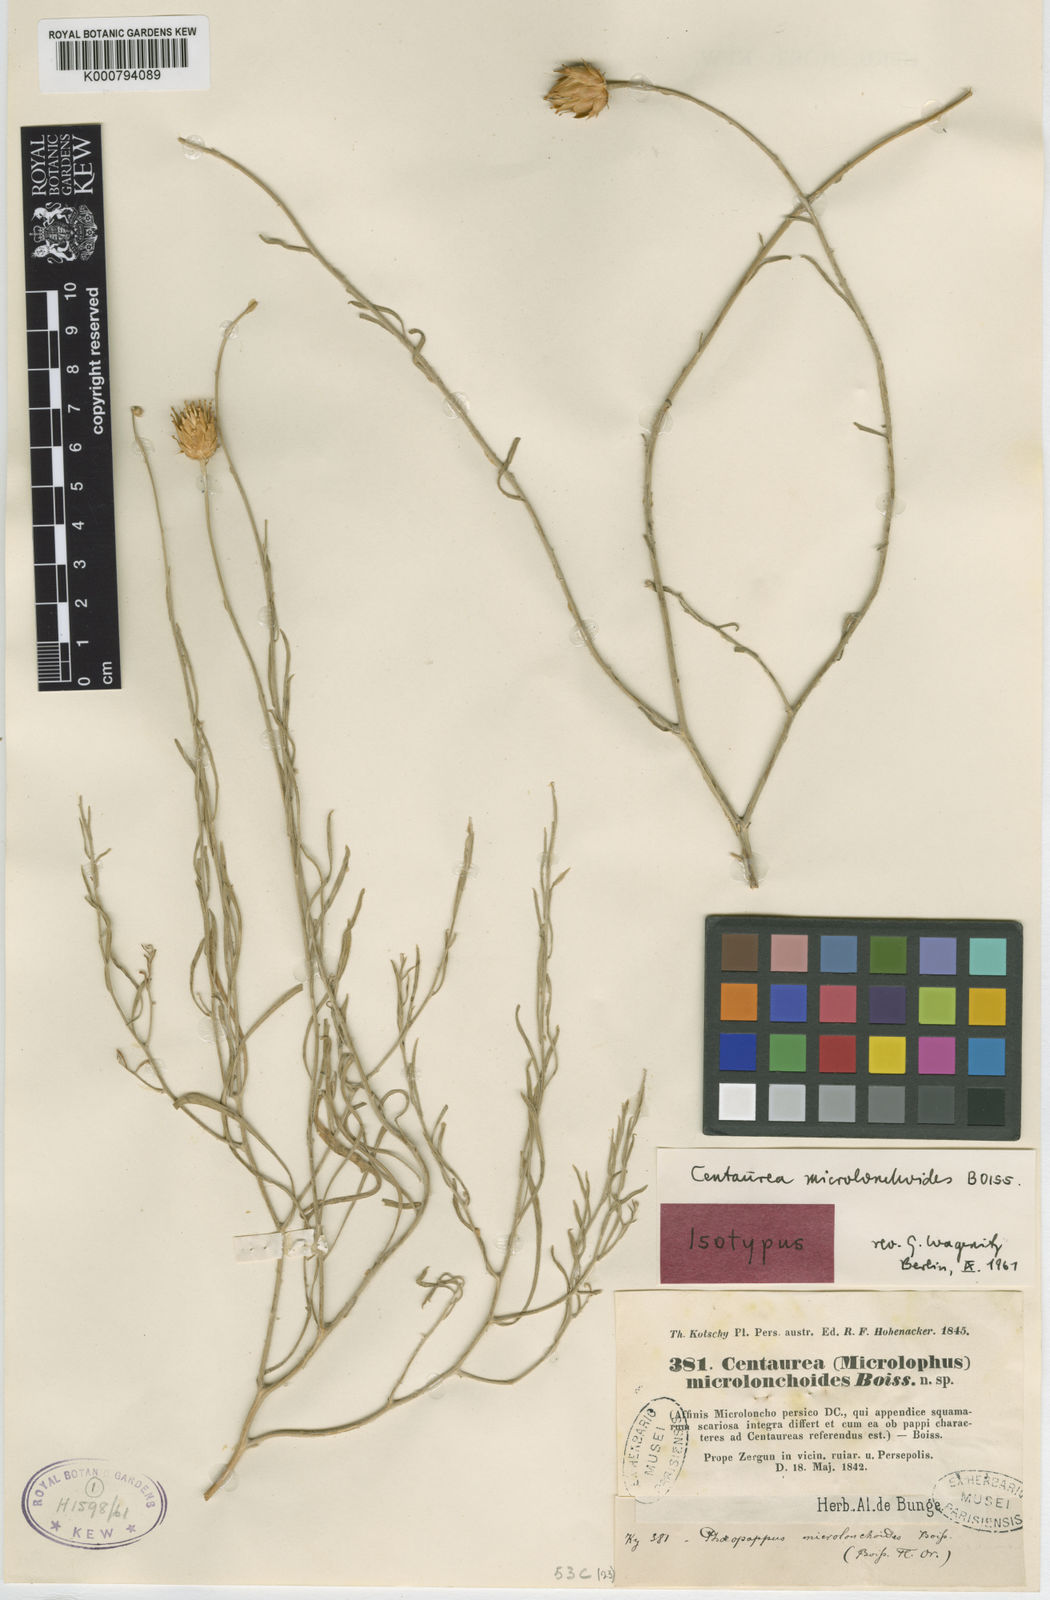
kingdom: Plantae
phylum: Tracheophyta
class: Magnoliopsida
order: Asterales
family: Asteraceae
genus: Centaurea
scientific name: Centaurea microlonchoides
